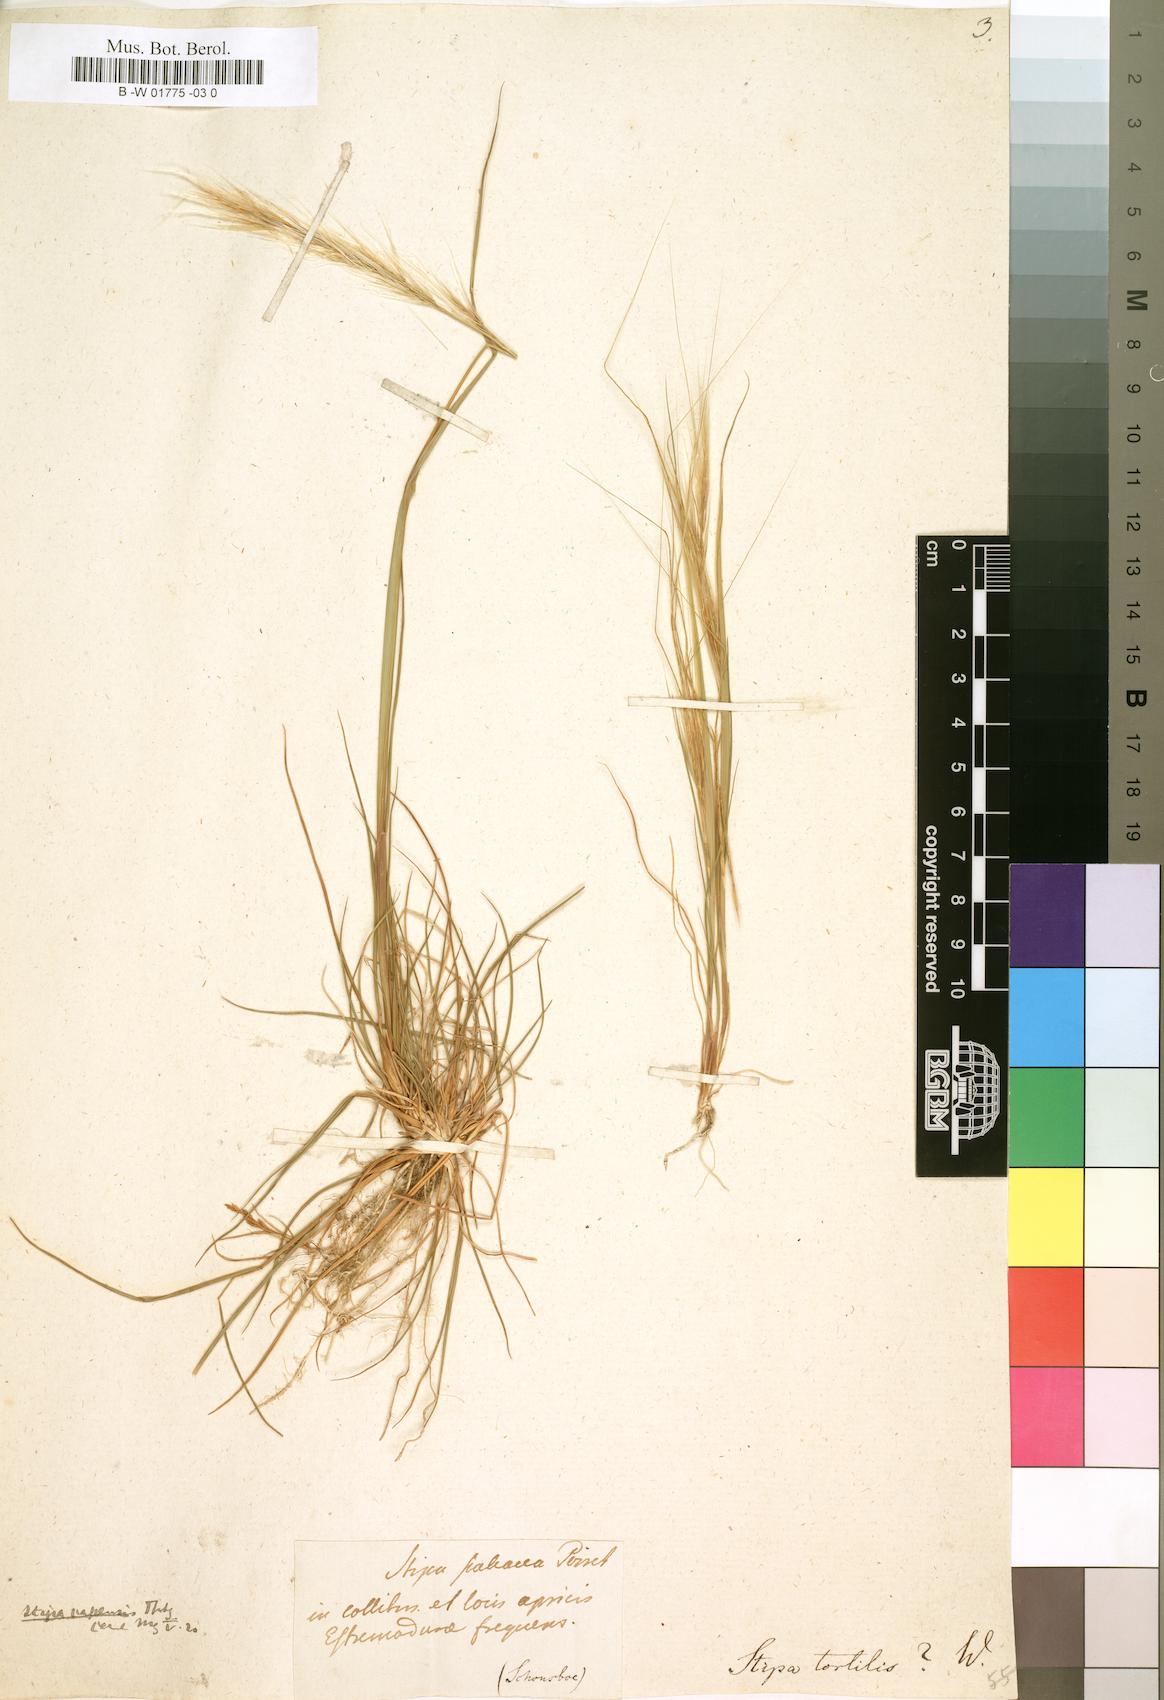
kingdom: Plantae
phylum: Tracheophyta
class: Liliopsida
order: Poales
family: Poaceae
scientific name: Poaceae
